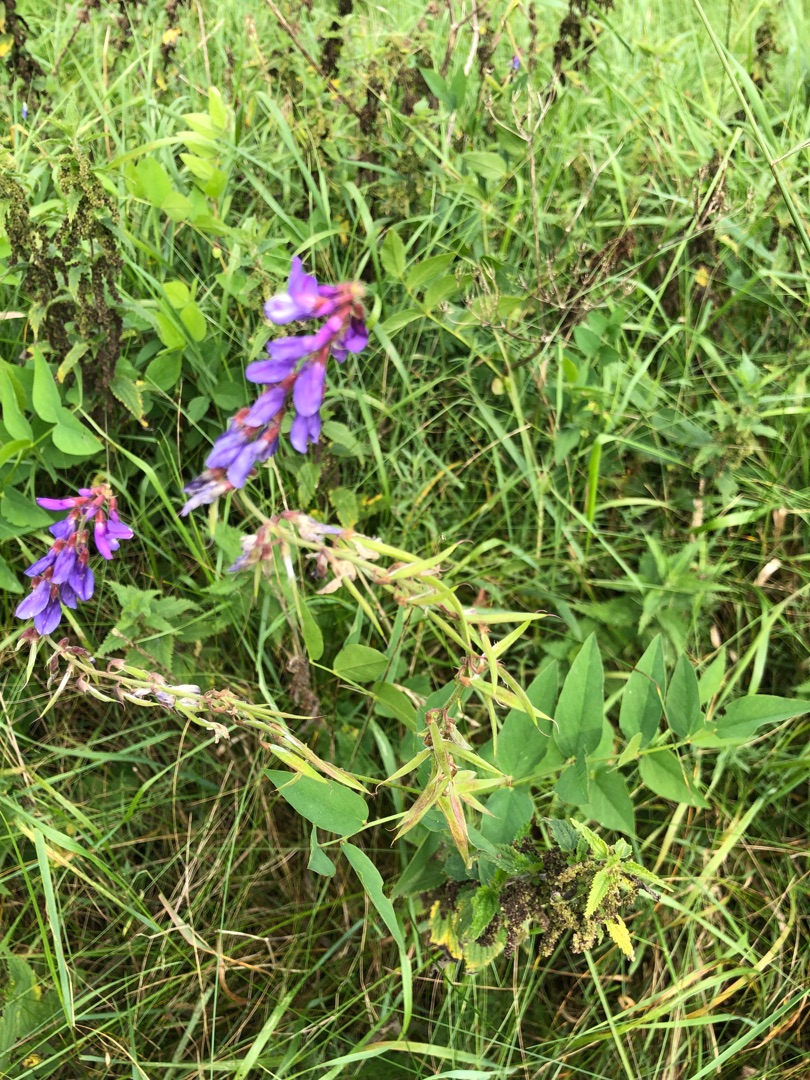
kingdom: Plantae
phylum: Tracheophyta
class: Magnoliopsida
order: Fabales
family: Fabaceae
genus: Galega
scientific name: Galega orientalis
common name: Blå stregbælg
